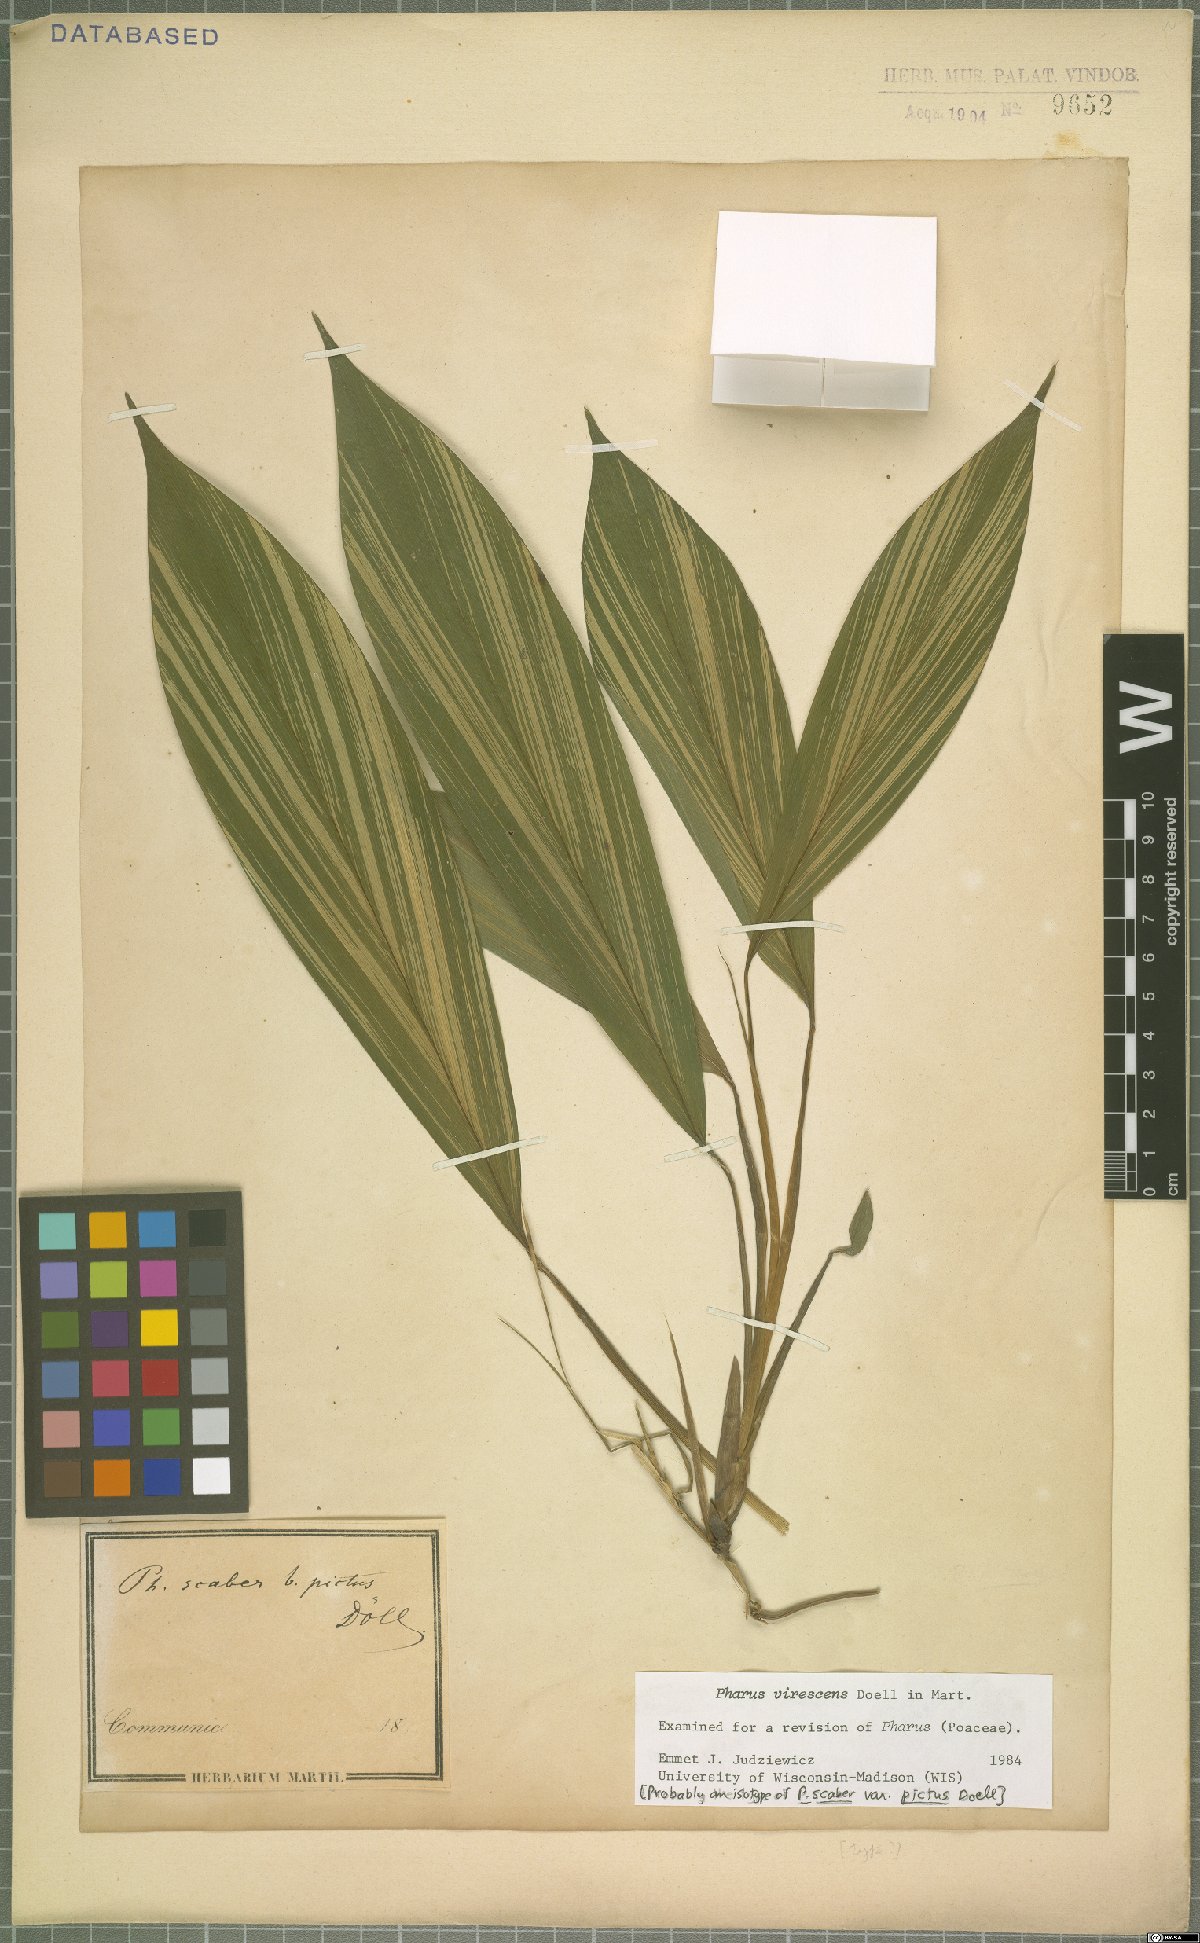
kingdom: Plantae
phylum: Tracheophyta
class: Liliopsida
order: Poales
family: Poaceae
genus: Pharus
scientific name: Pharus virescens
